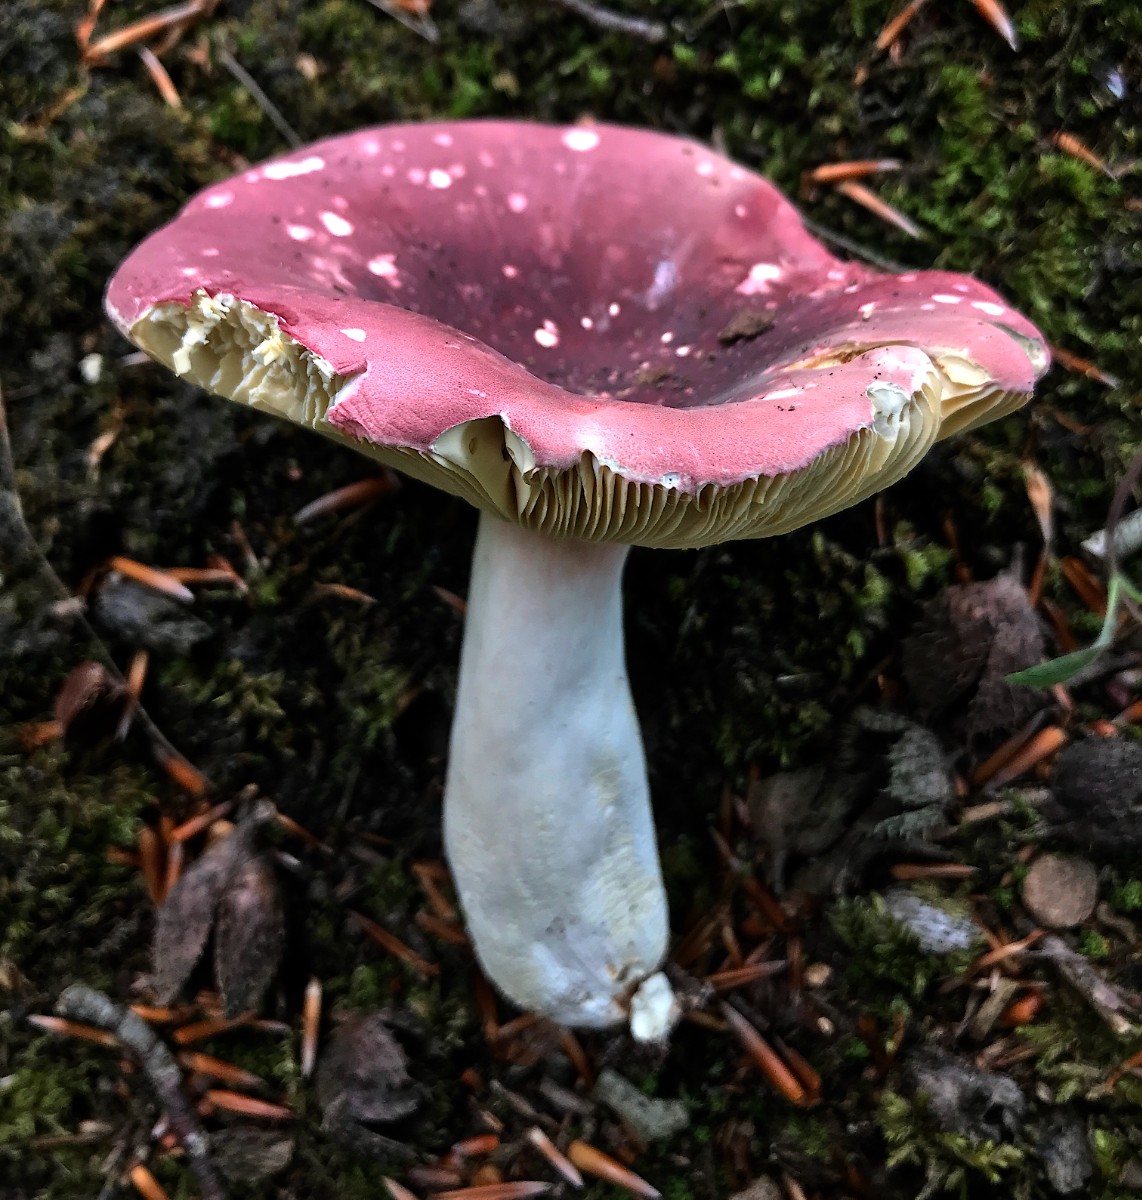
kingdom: Fungi
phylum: Basidiomycota
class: Agaricomycetes
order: Russulales
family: Russulaceae
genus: Russula
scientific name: Russula olivacea
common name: stor skørhat
